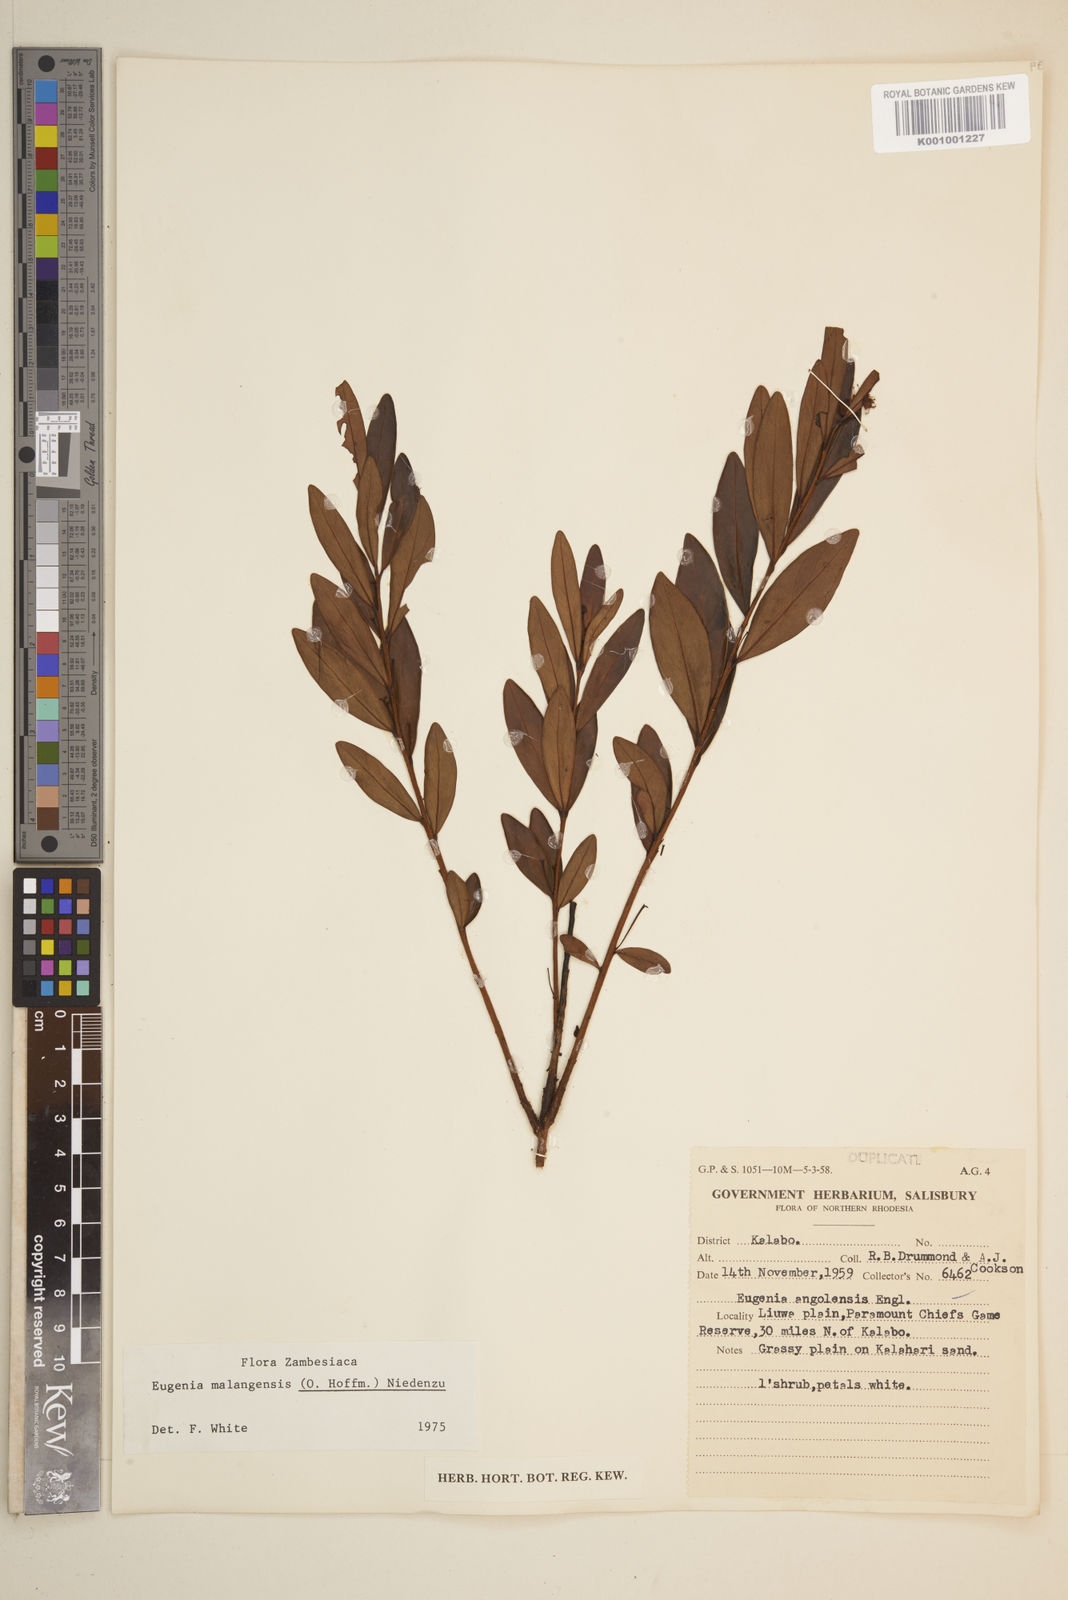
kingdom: Plantae
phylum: Tracheophyta
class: Magnoliopsida
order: Myrtales
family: Myrtaceae
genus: Eugenia
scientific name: Eugenia malangensis
